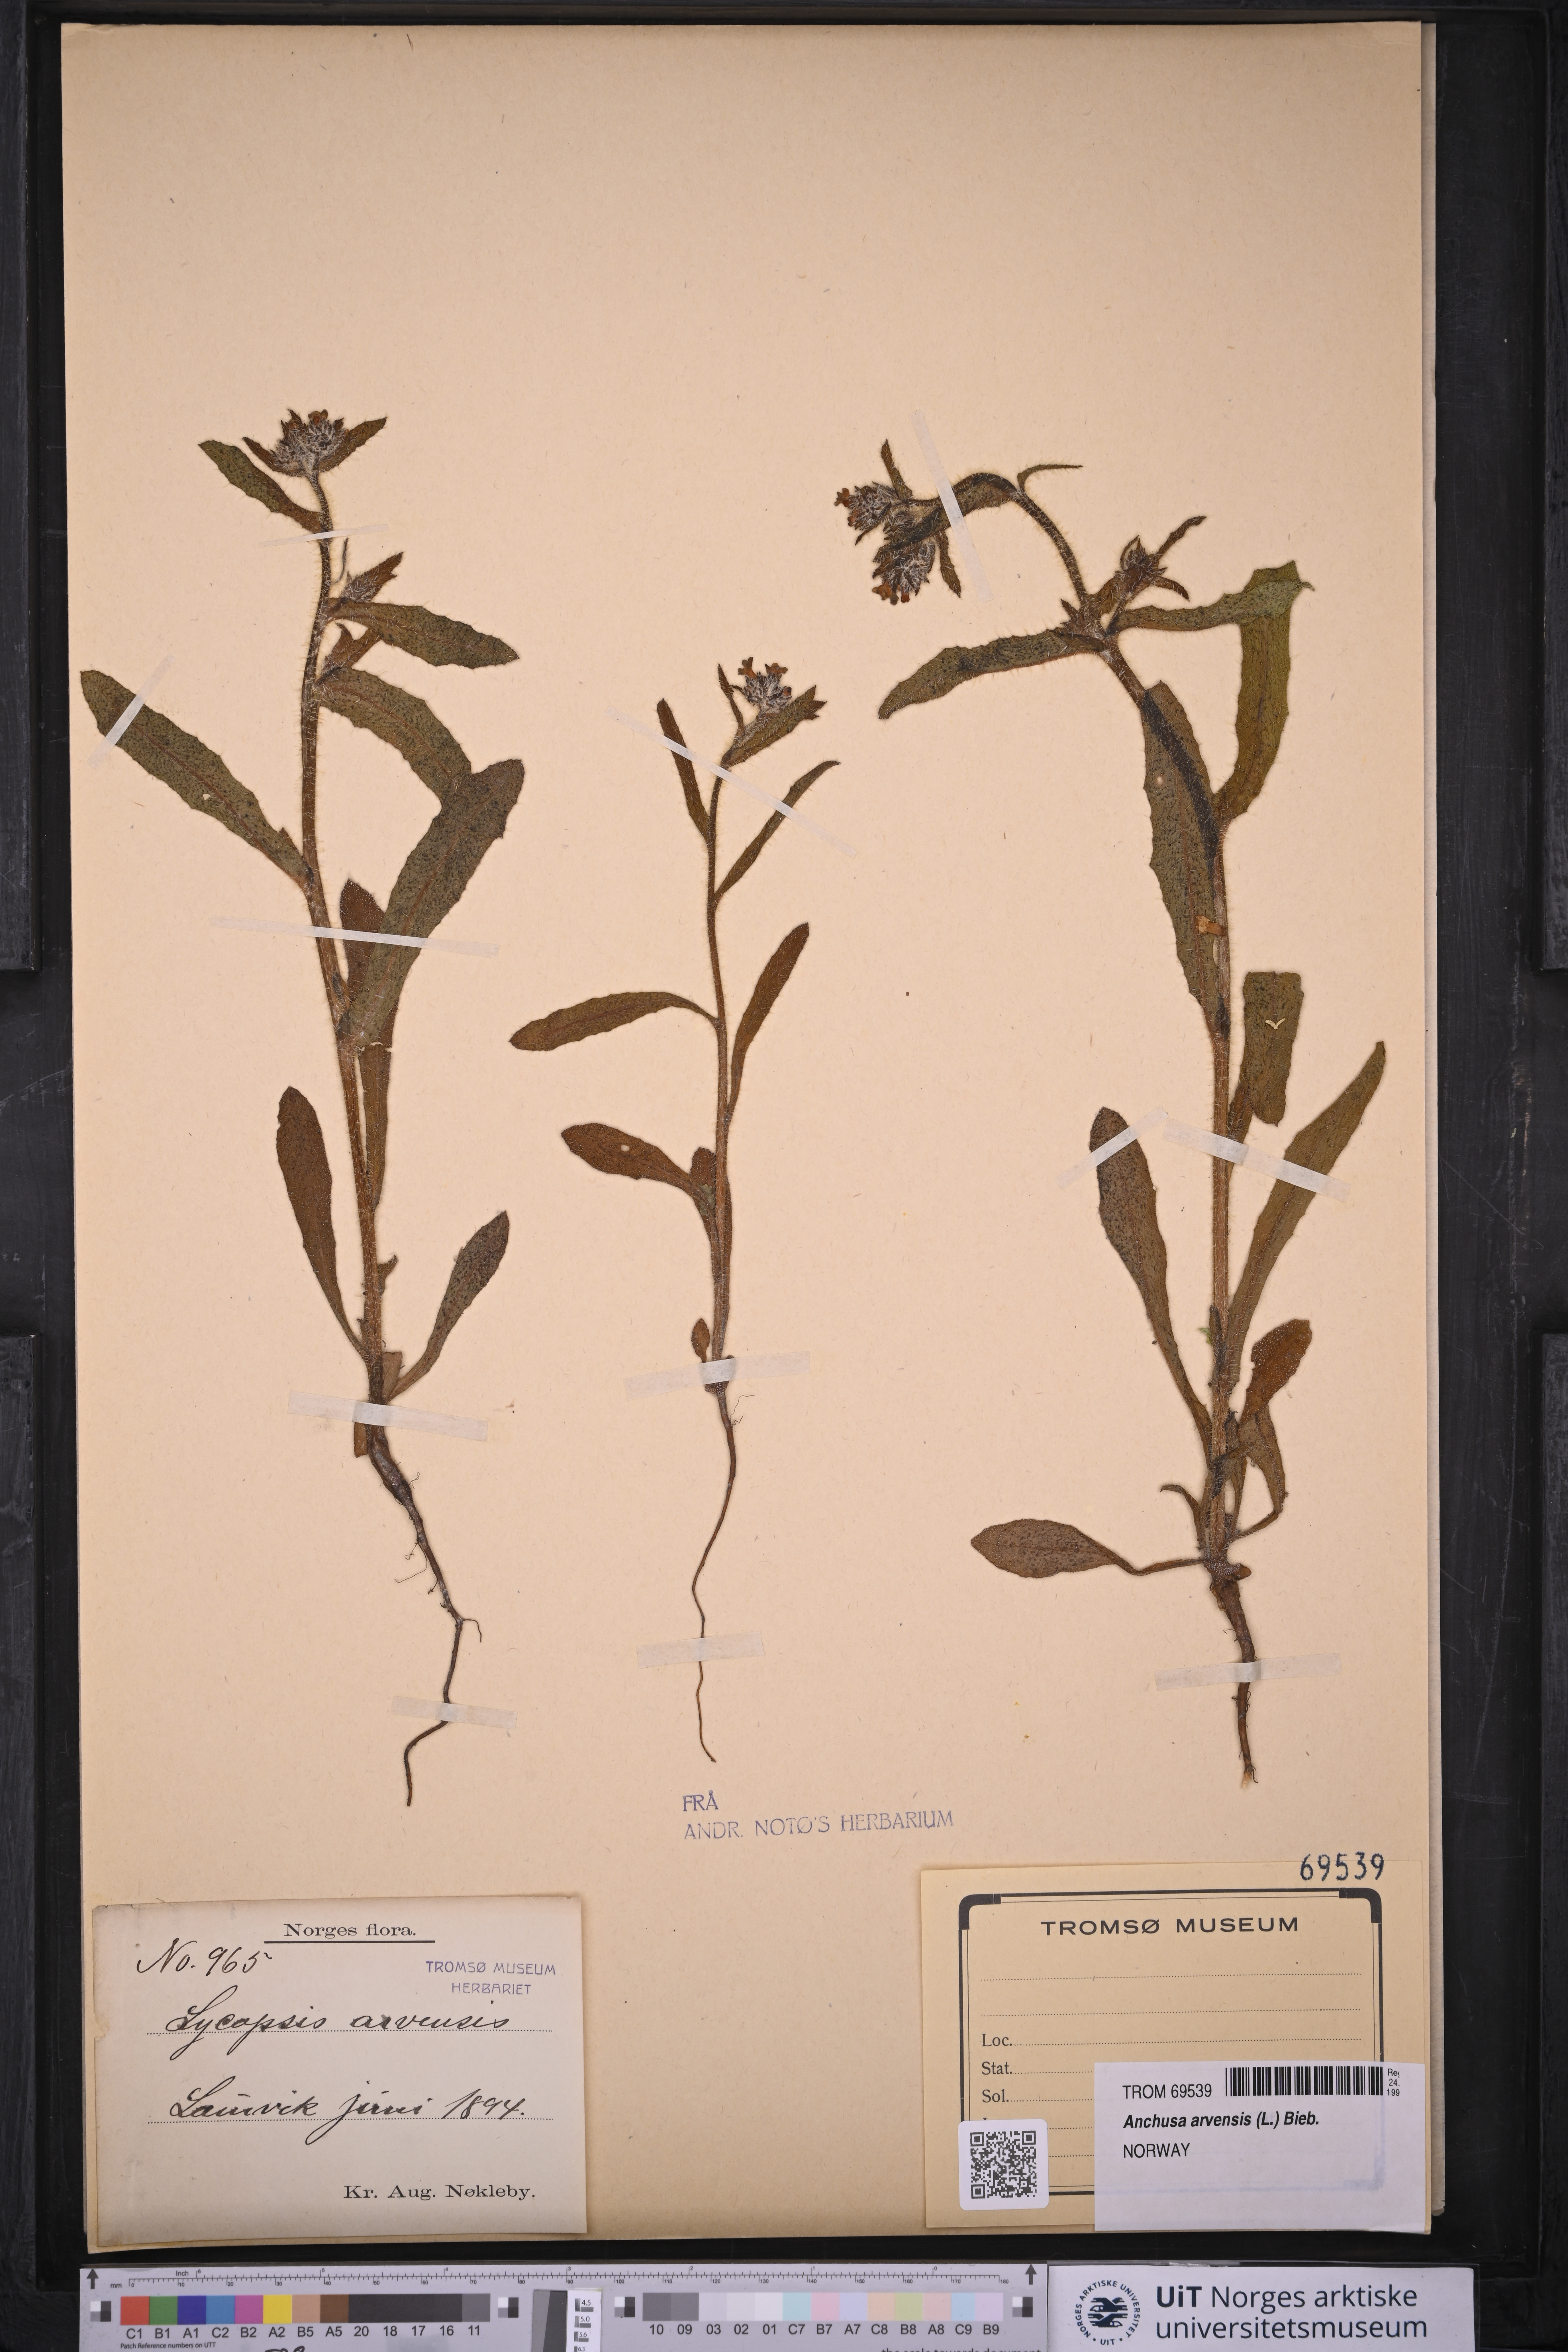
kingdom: Plantae
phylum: Tracheophyta
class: Magnoliopsida
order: Boraginales
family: Boraginaceae
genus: Lycopsis
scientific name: Lycopsis arvensis
